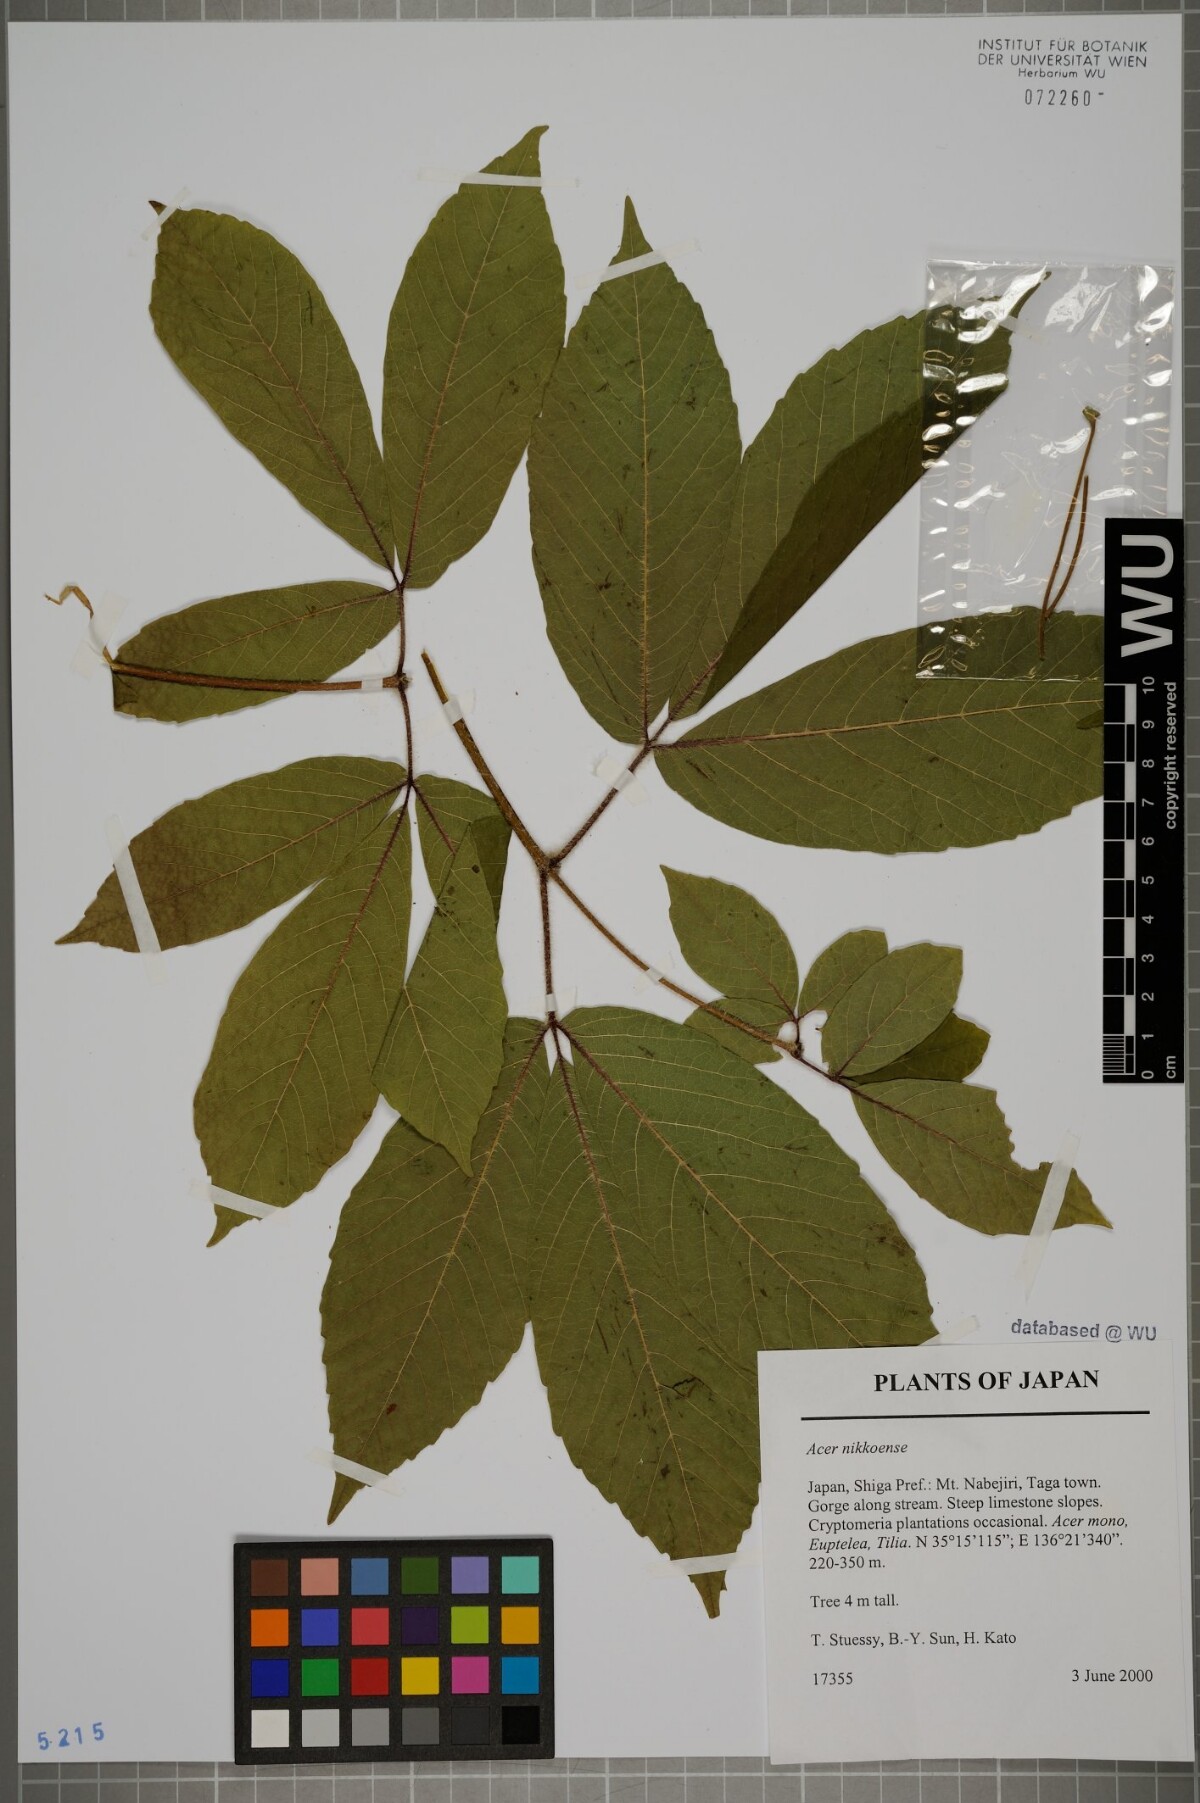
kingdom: Plantae
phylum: Tracheophyta
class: Magnoliopsida
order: Vitales
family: Vitaceae
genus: Parthenocissus
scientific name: Parthenocissus tricuspidata
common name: Boston ivy
